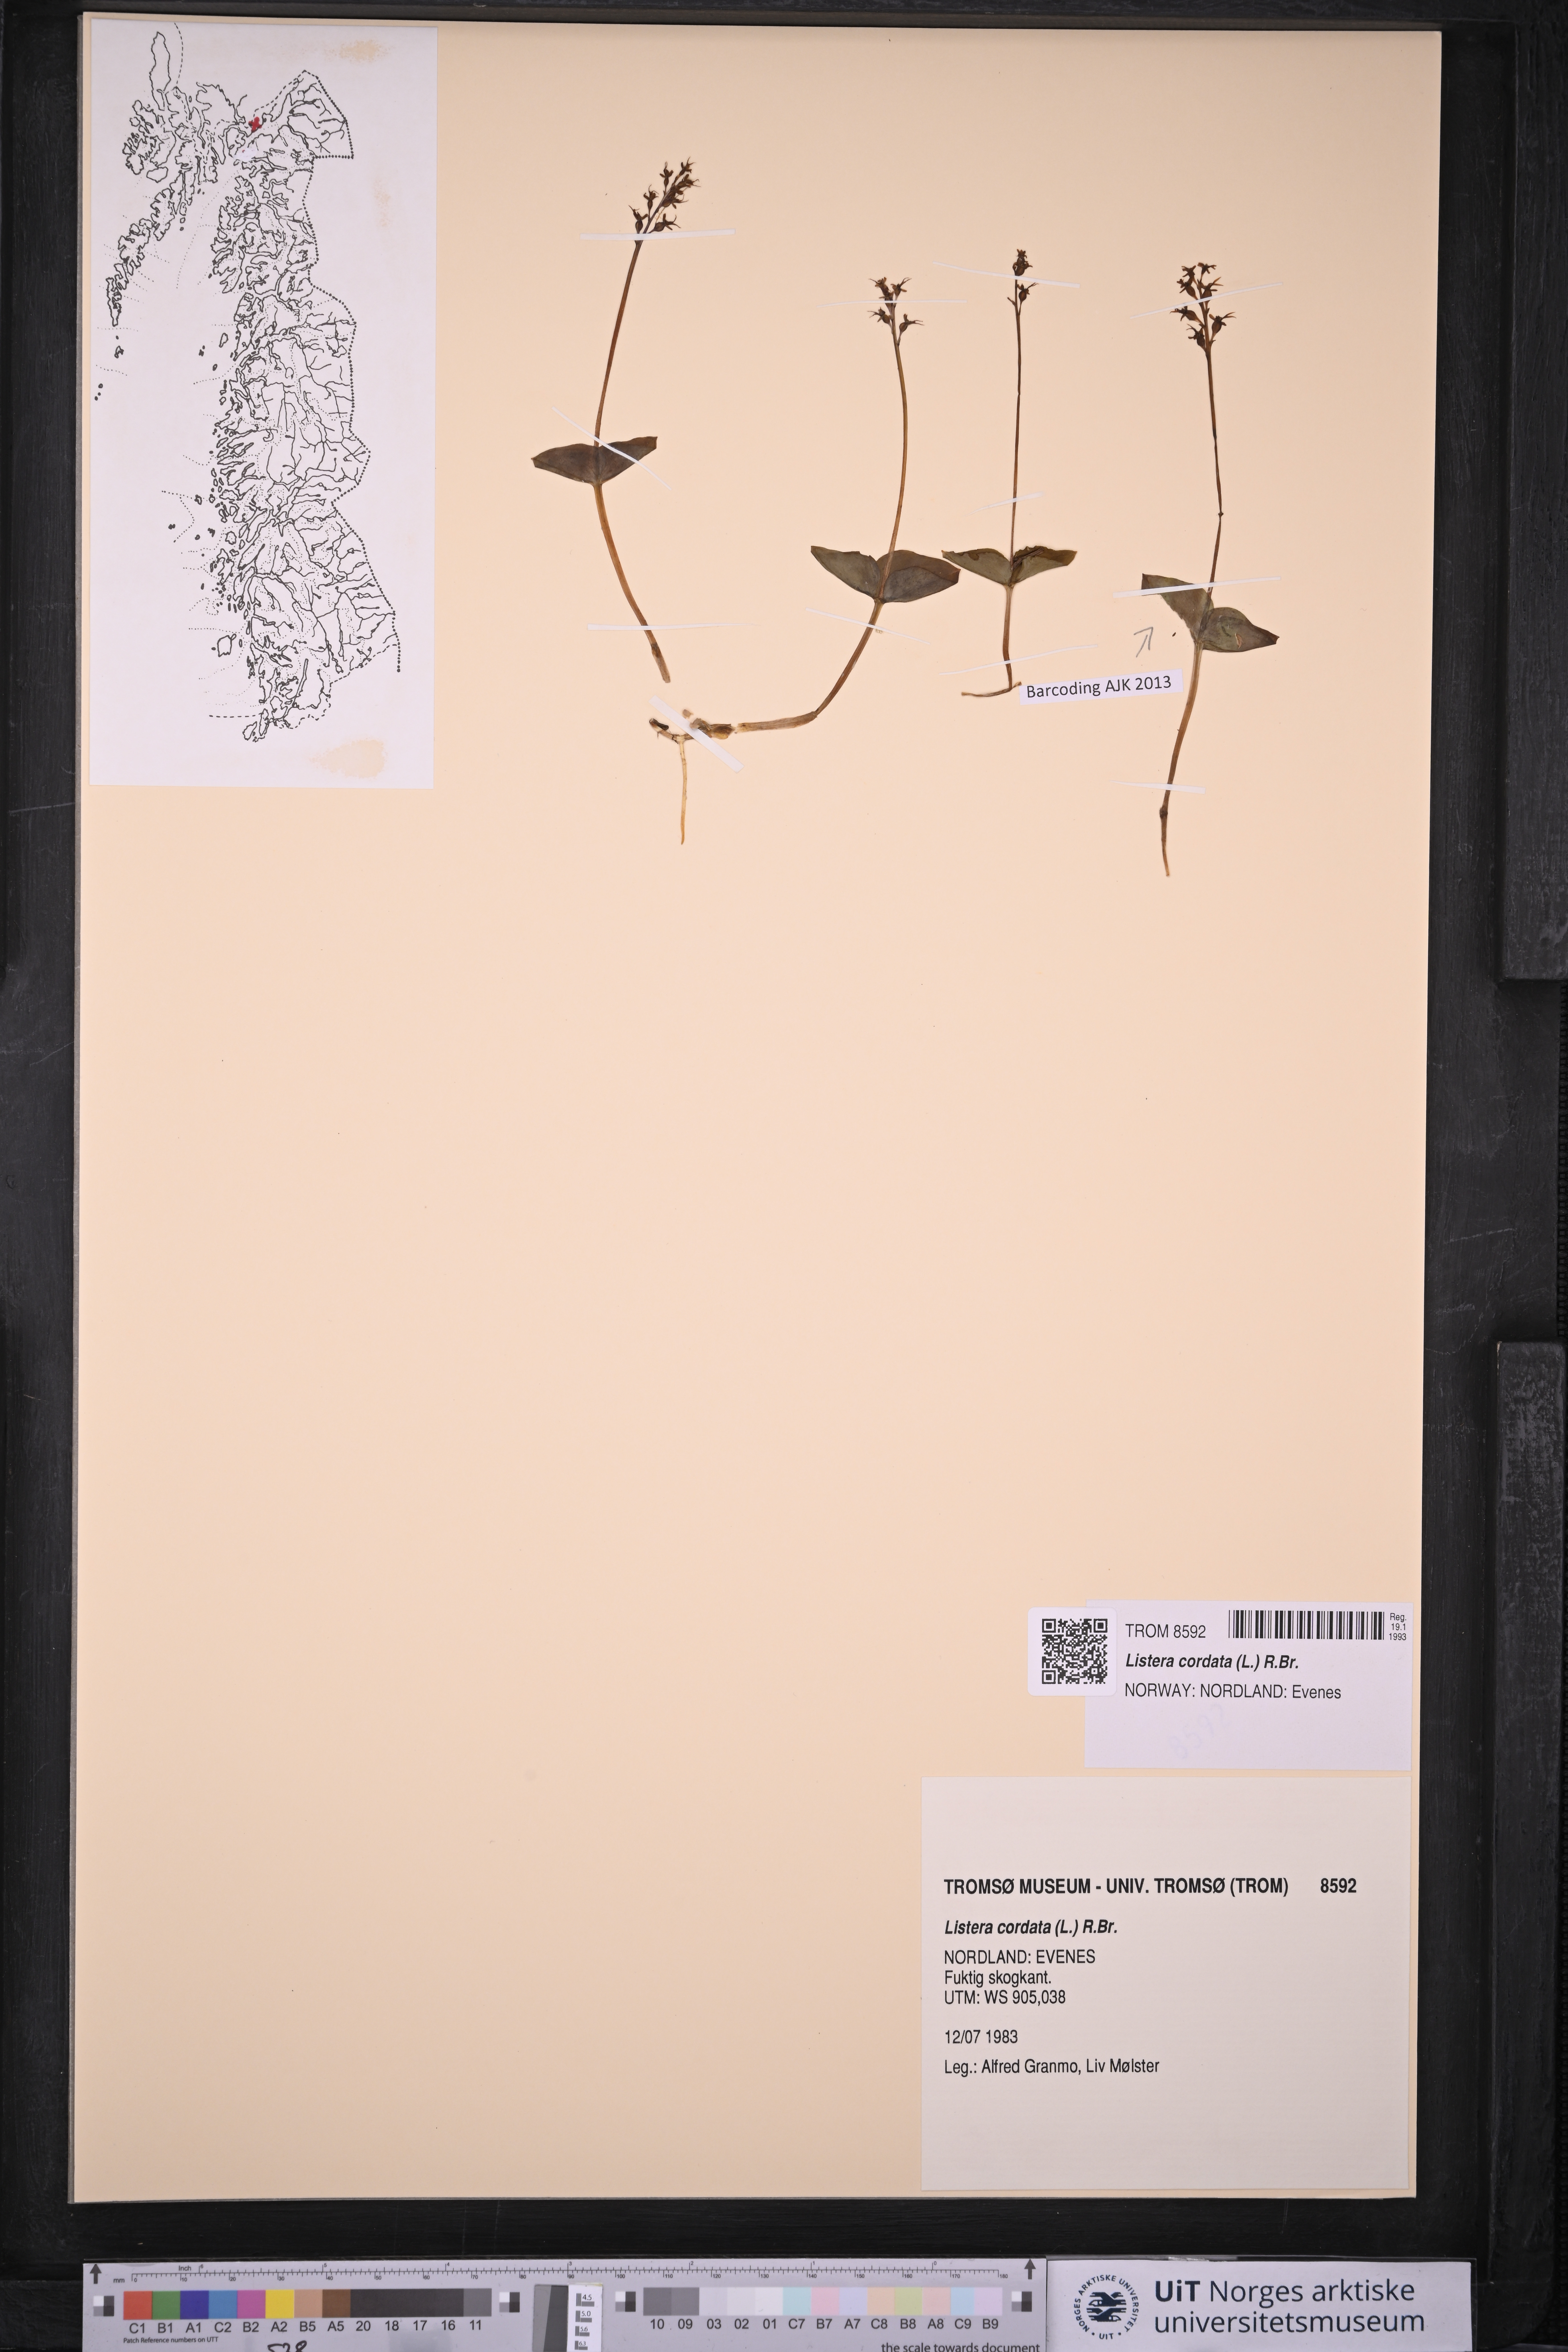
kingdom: Plantae
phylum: Tracheophyta
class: Liliopsida
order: Asparagales
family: Orchidaceae
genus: Neottia
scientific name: Neottia cordata
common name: Lesser twayblade
